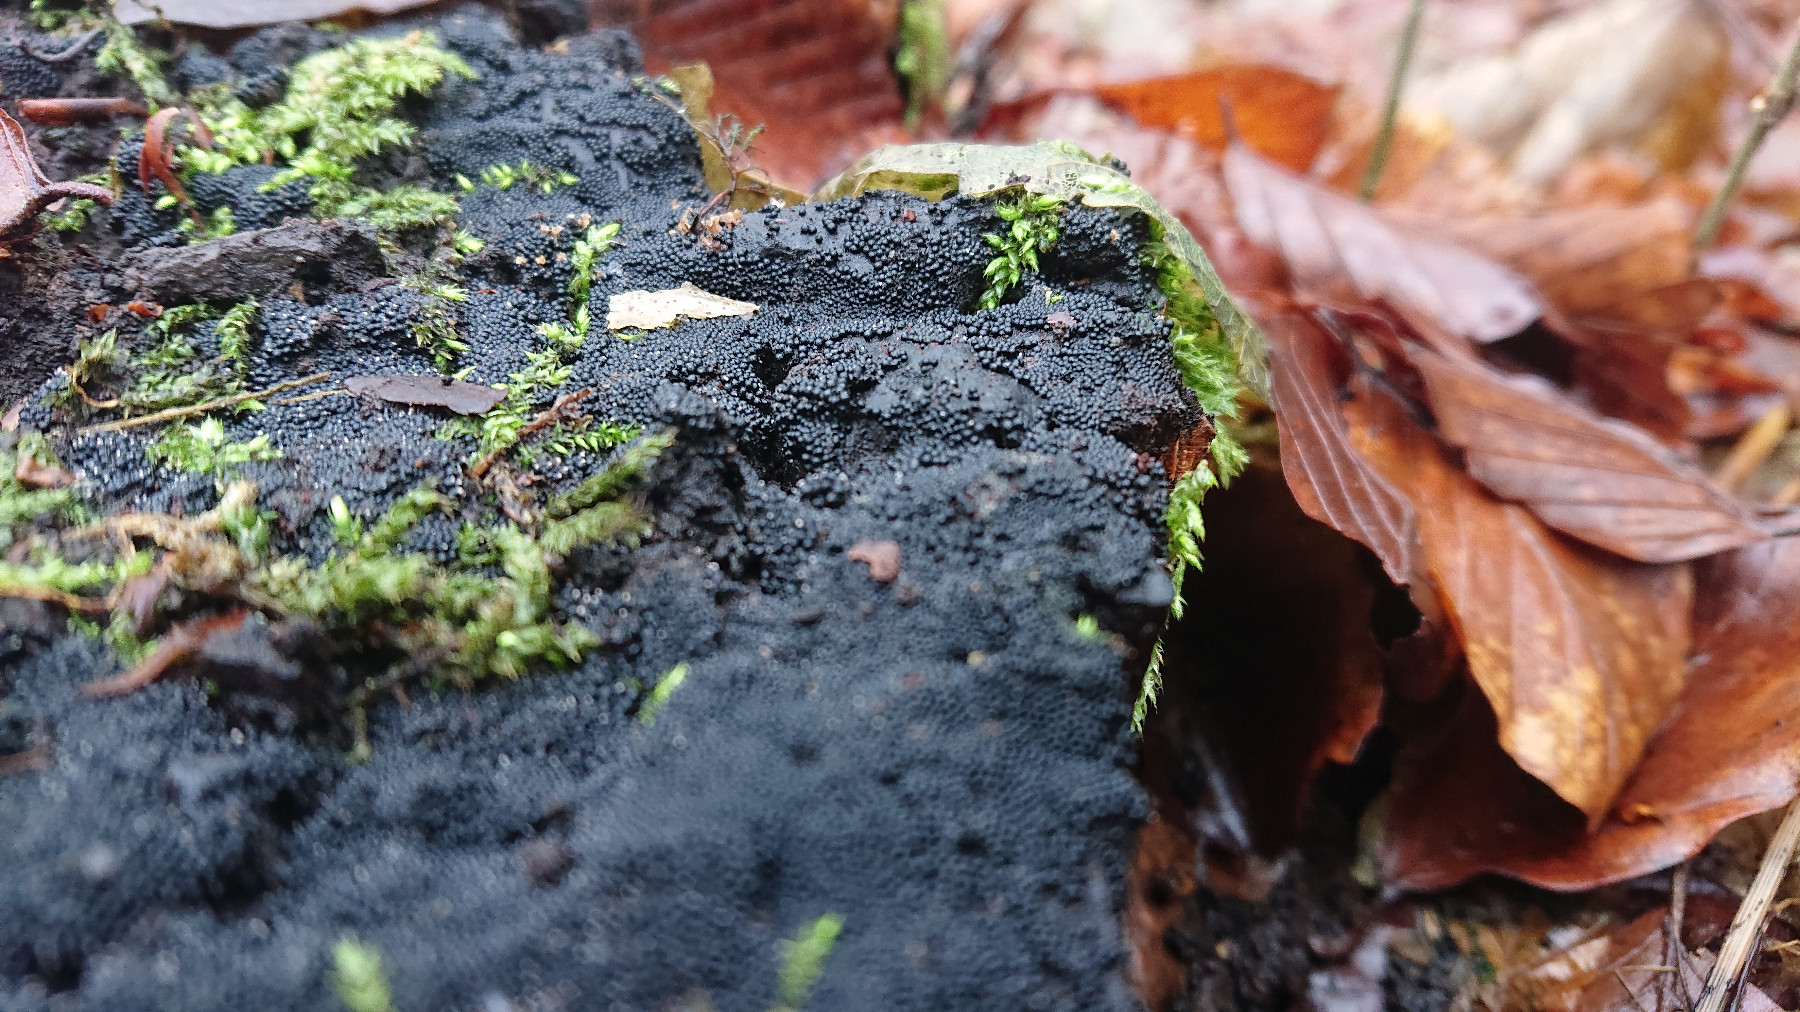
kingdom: Fungi
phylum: Ascomycota
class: Sordariomycetes
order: Sordariales
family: Helminthosphaeriaceae
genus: Ruzenia
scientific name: Ruzenia spermoides
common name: glat børstekerne
